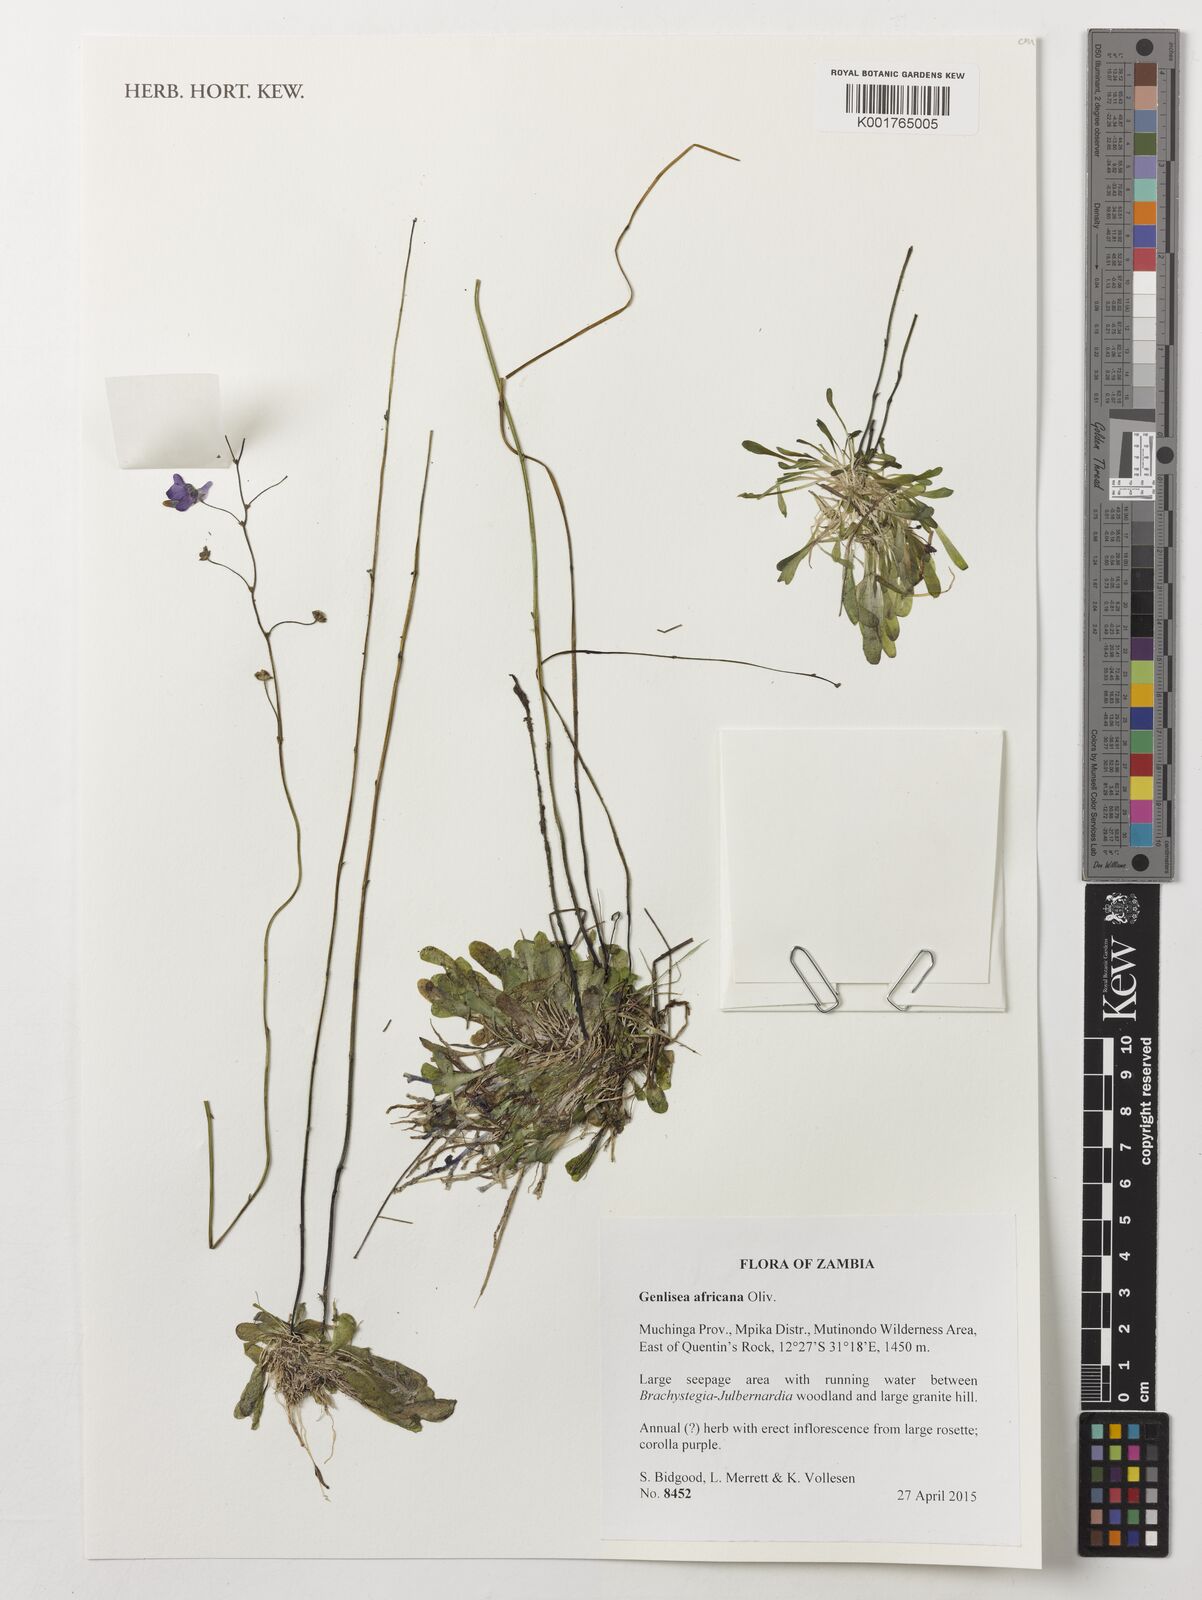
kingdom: Plantae
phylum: Tracheophyta
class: Magnoliopsida
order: Lamiales
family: Lentibulariaceae
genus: Genlisea
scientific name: Genlisea africana
